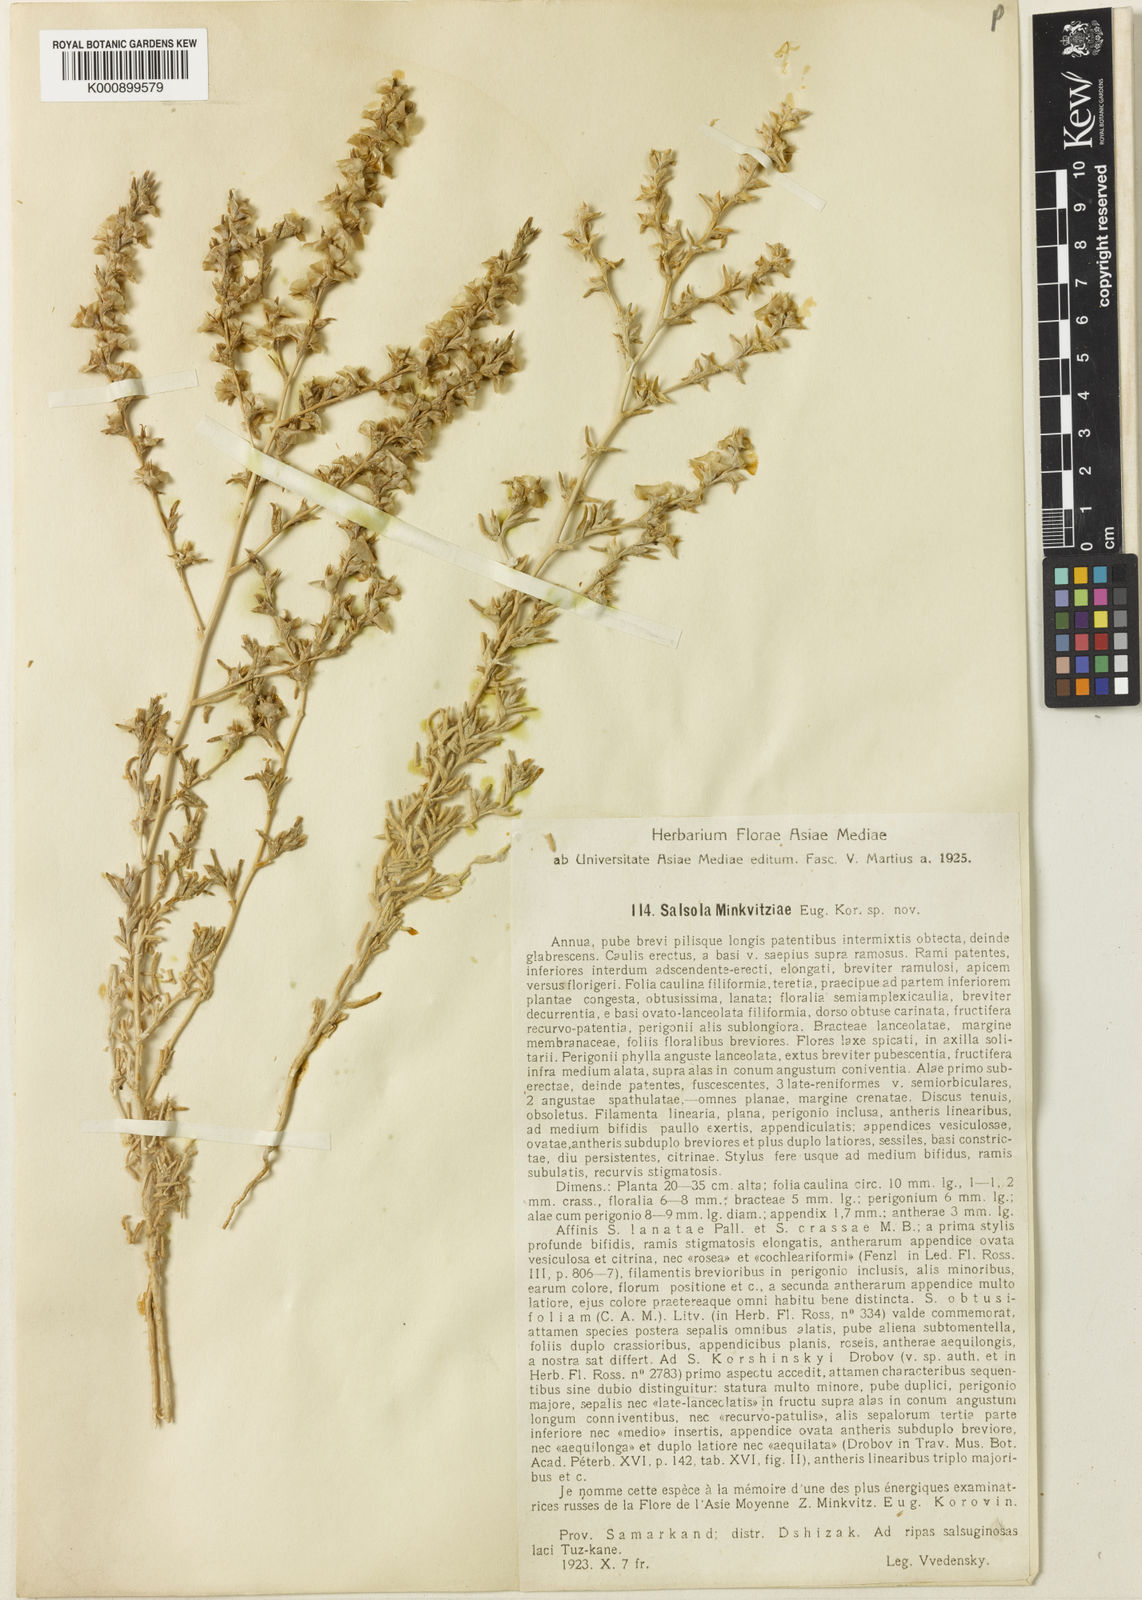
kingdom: Plantae
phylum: Tracheophyta
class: Magnoliopsida
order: Caryophyllales
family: Amaranthaceae
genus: Climacoptera
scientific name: Climacoptera minkvitziae
